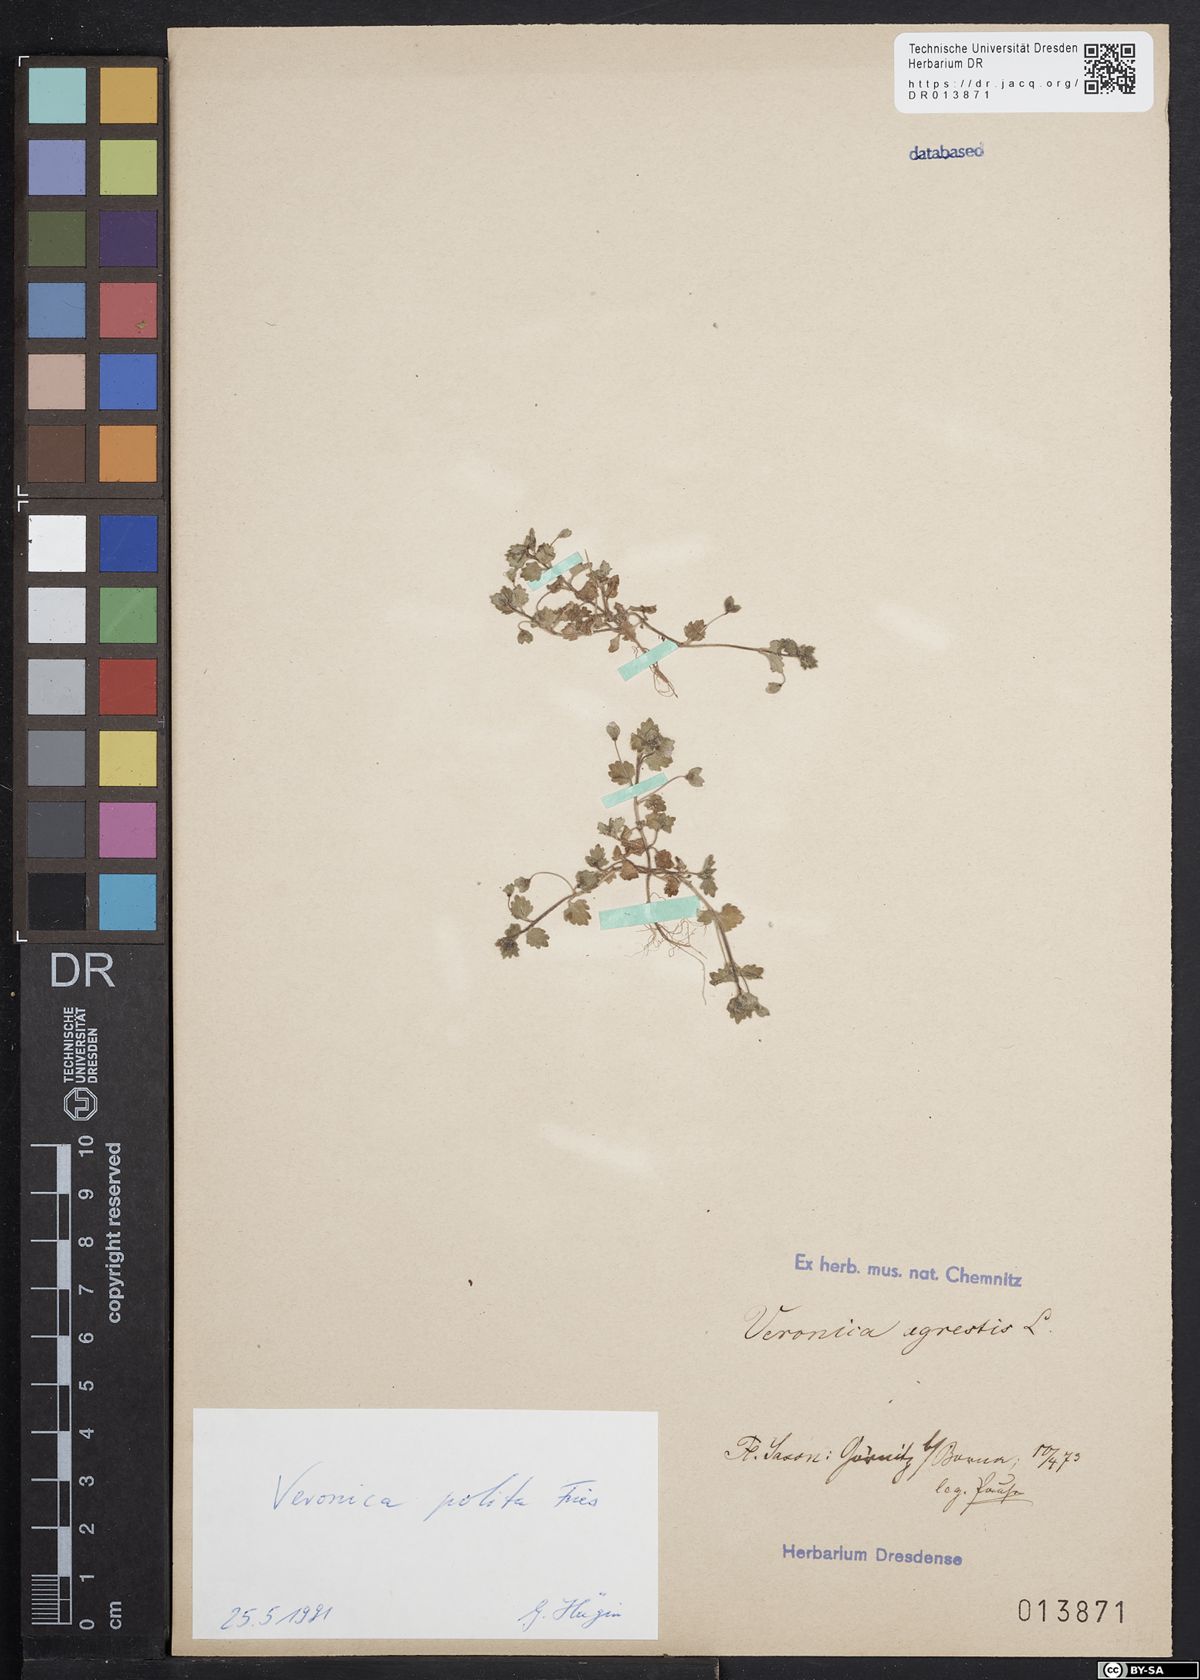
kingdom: Plantae
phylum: Tracheophyta
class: Magnoliopsida
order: Lamiales
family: Plantaginaceae
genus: Veronica
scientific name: Veronica polita
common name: Grey field-speedwell
